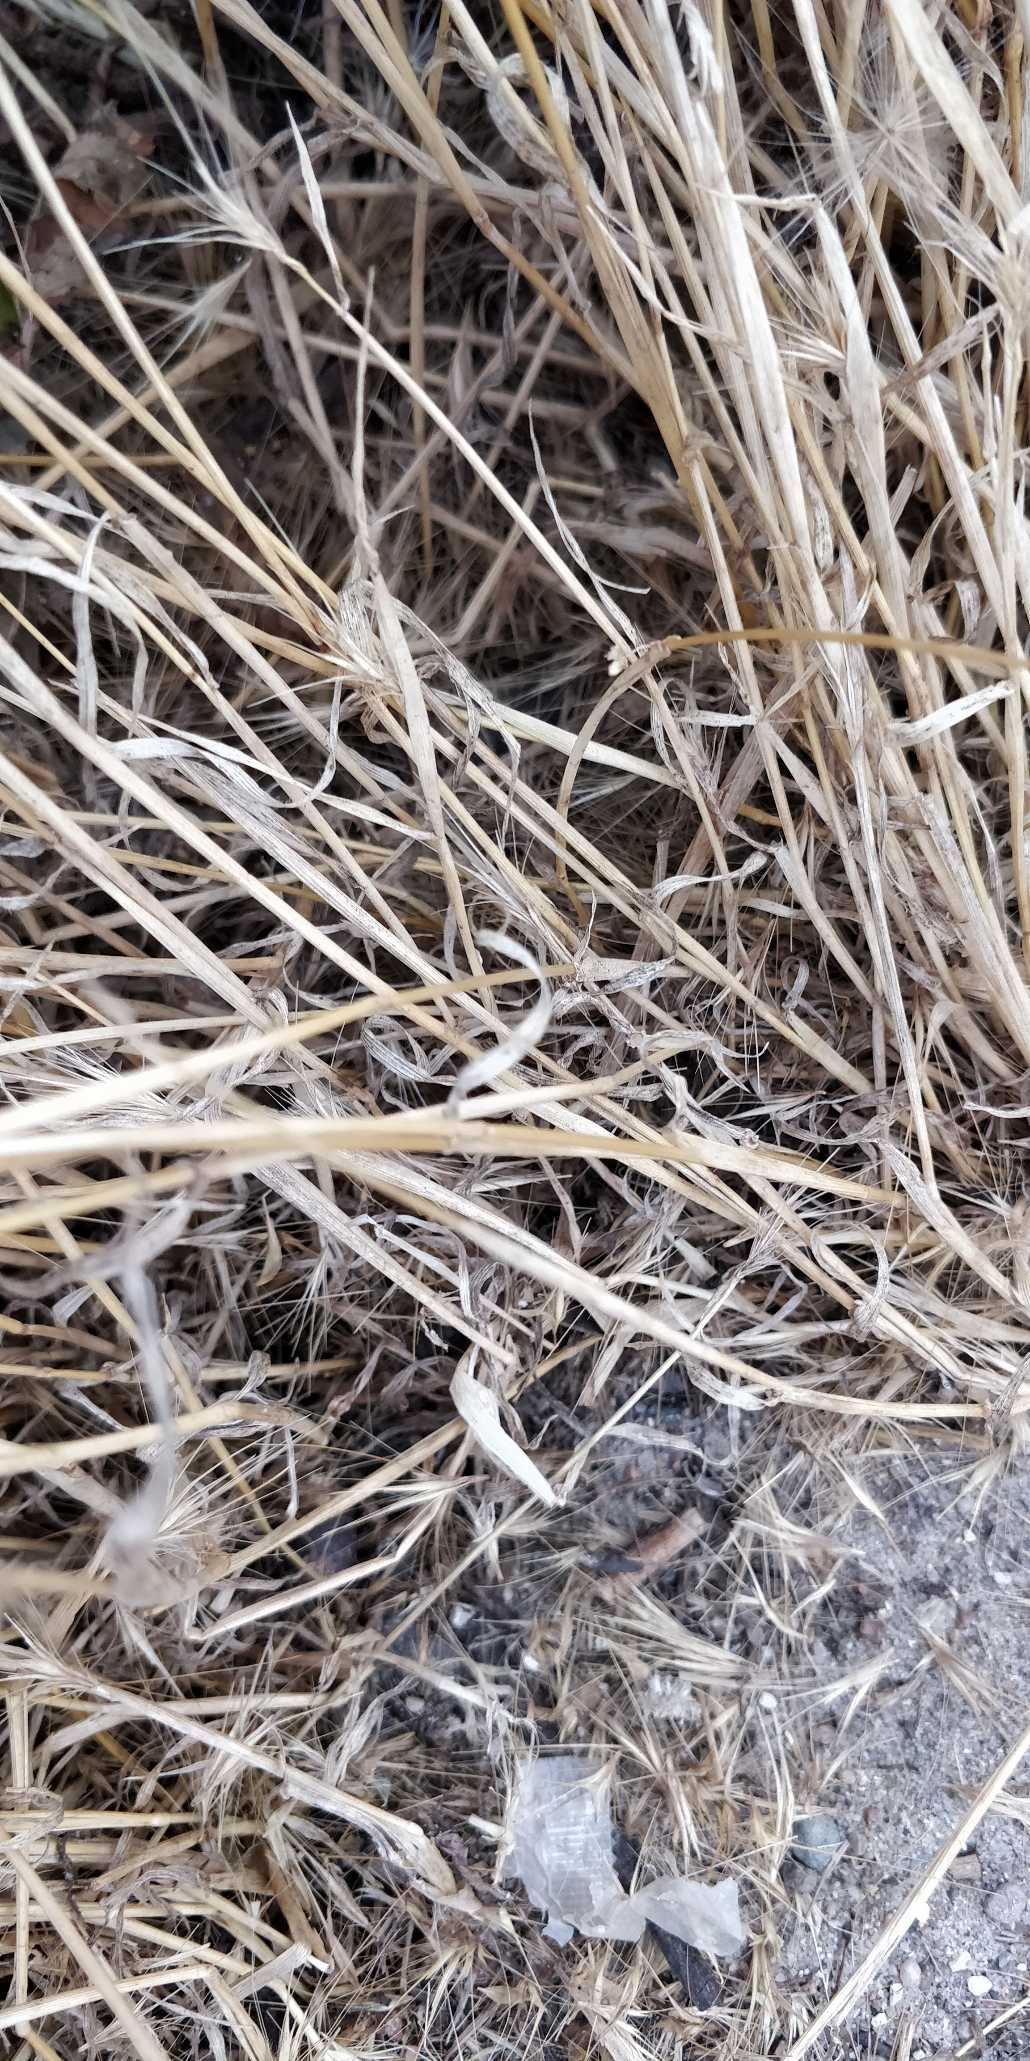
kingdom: Plantae
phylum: Tracheophyta
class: Liliopsida
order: Poales
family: Poaceae
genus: Hordeum
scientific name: Hordeum murinum
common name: Gold byg
